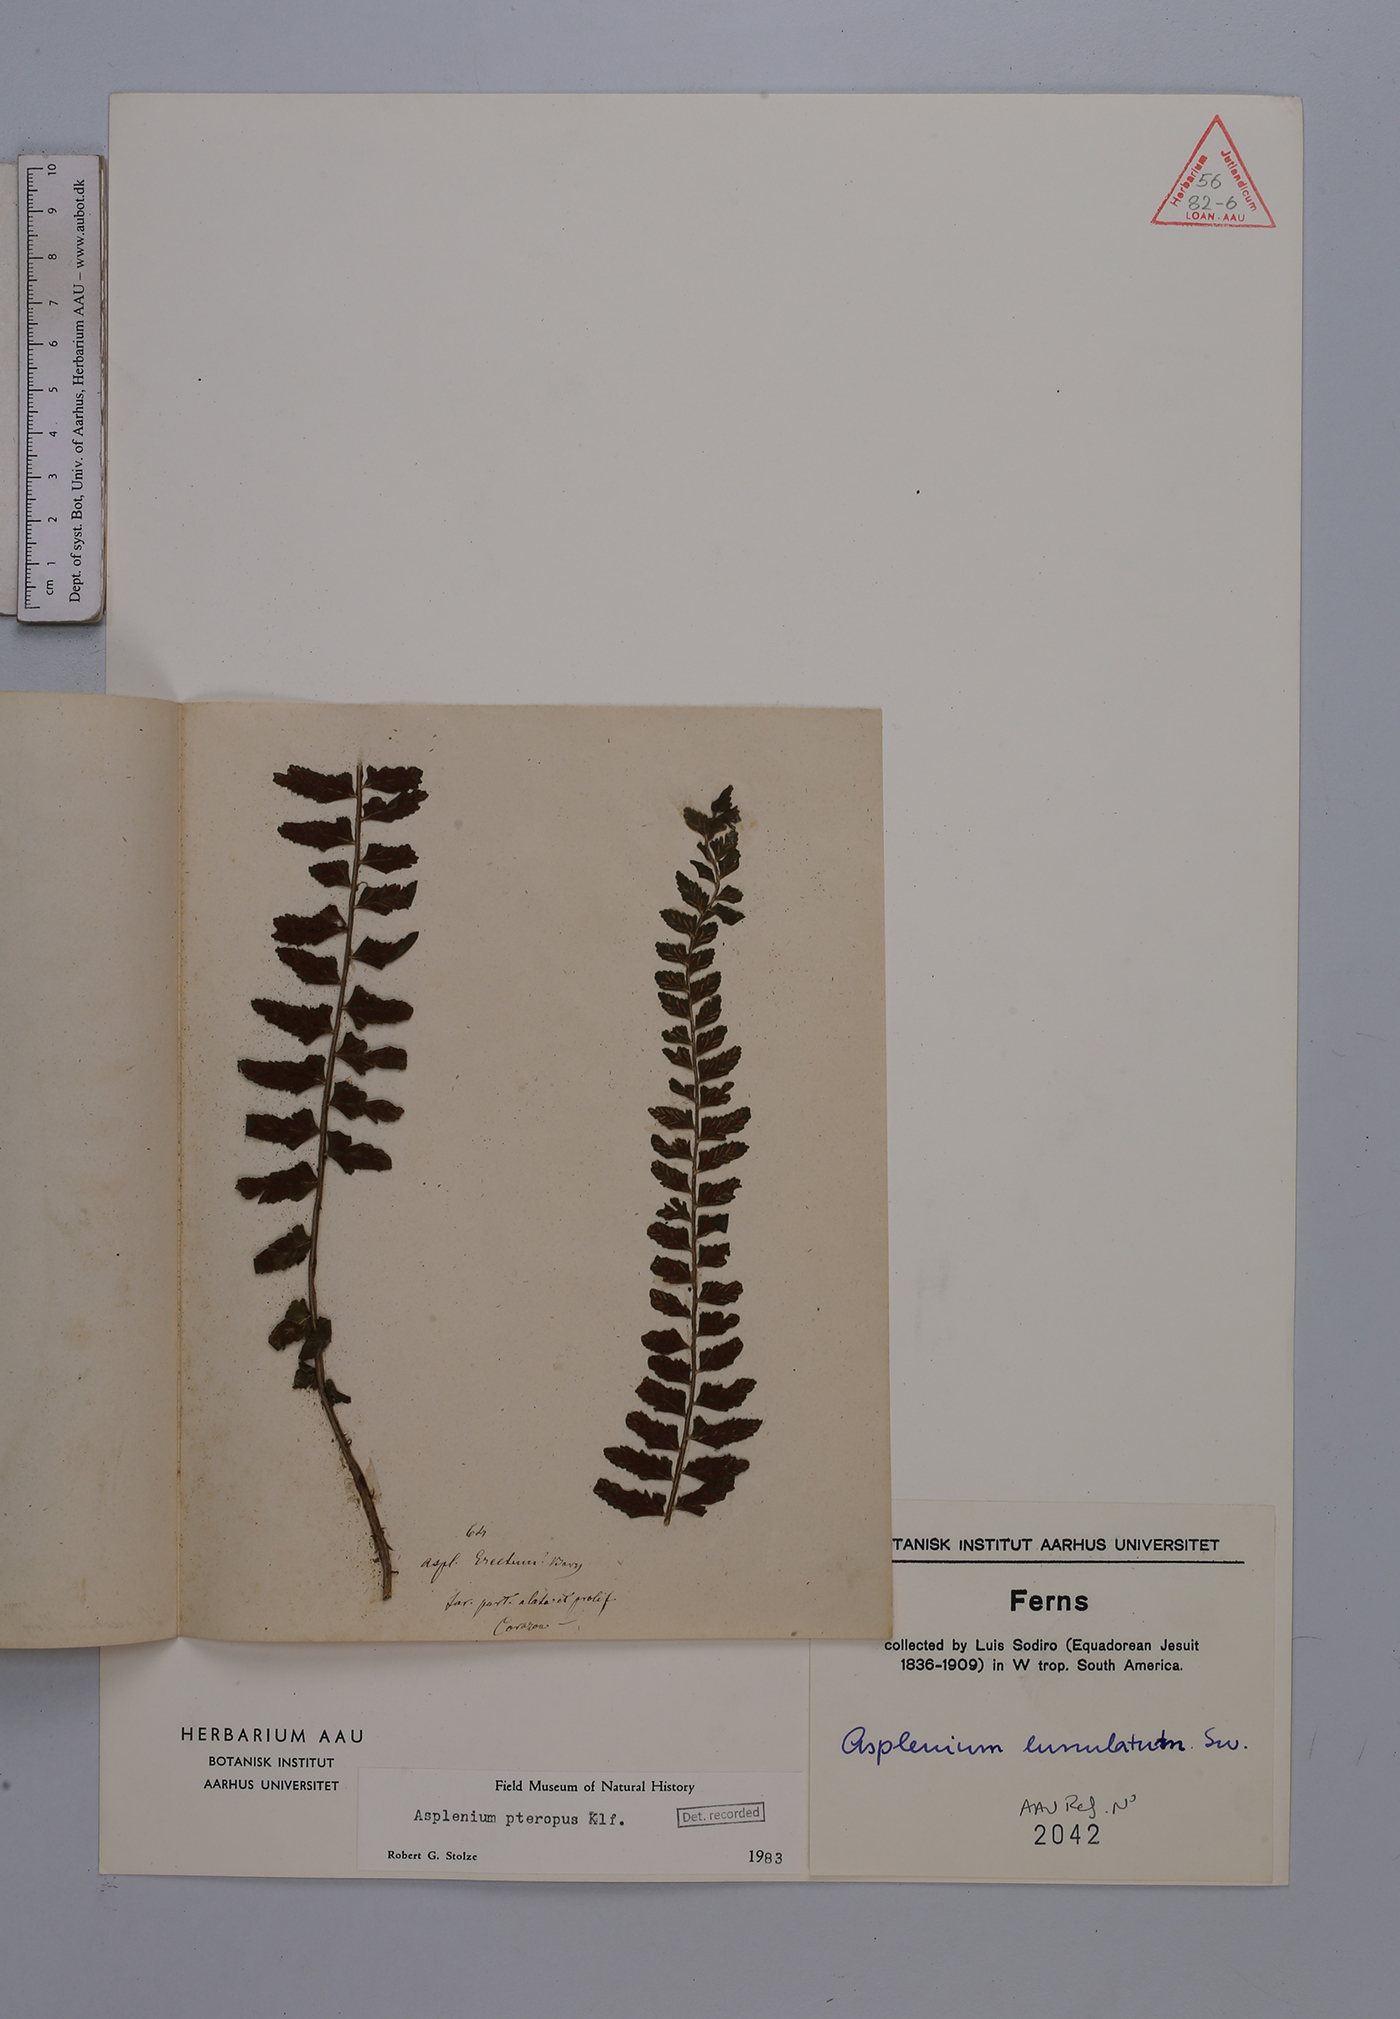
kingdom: Plantae
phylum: Tracheophyta
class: Polypodiopsida
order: Polypodiales
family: Aspleniaceae
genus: Asplenium
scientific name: Asplenium pteropus
